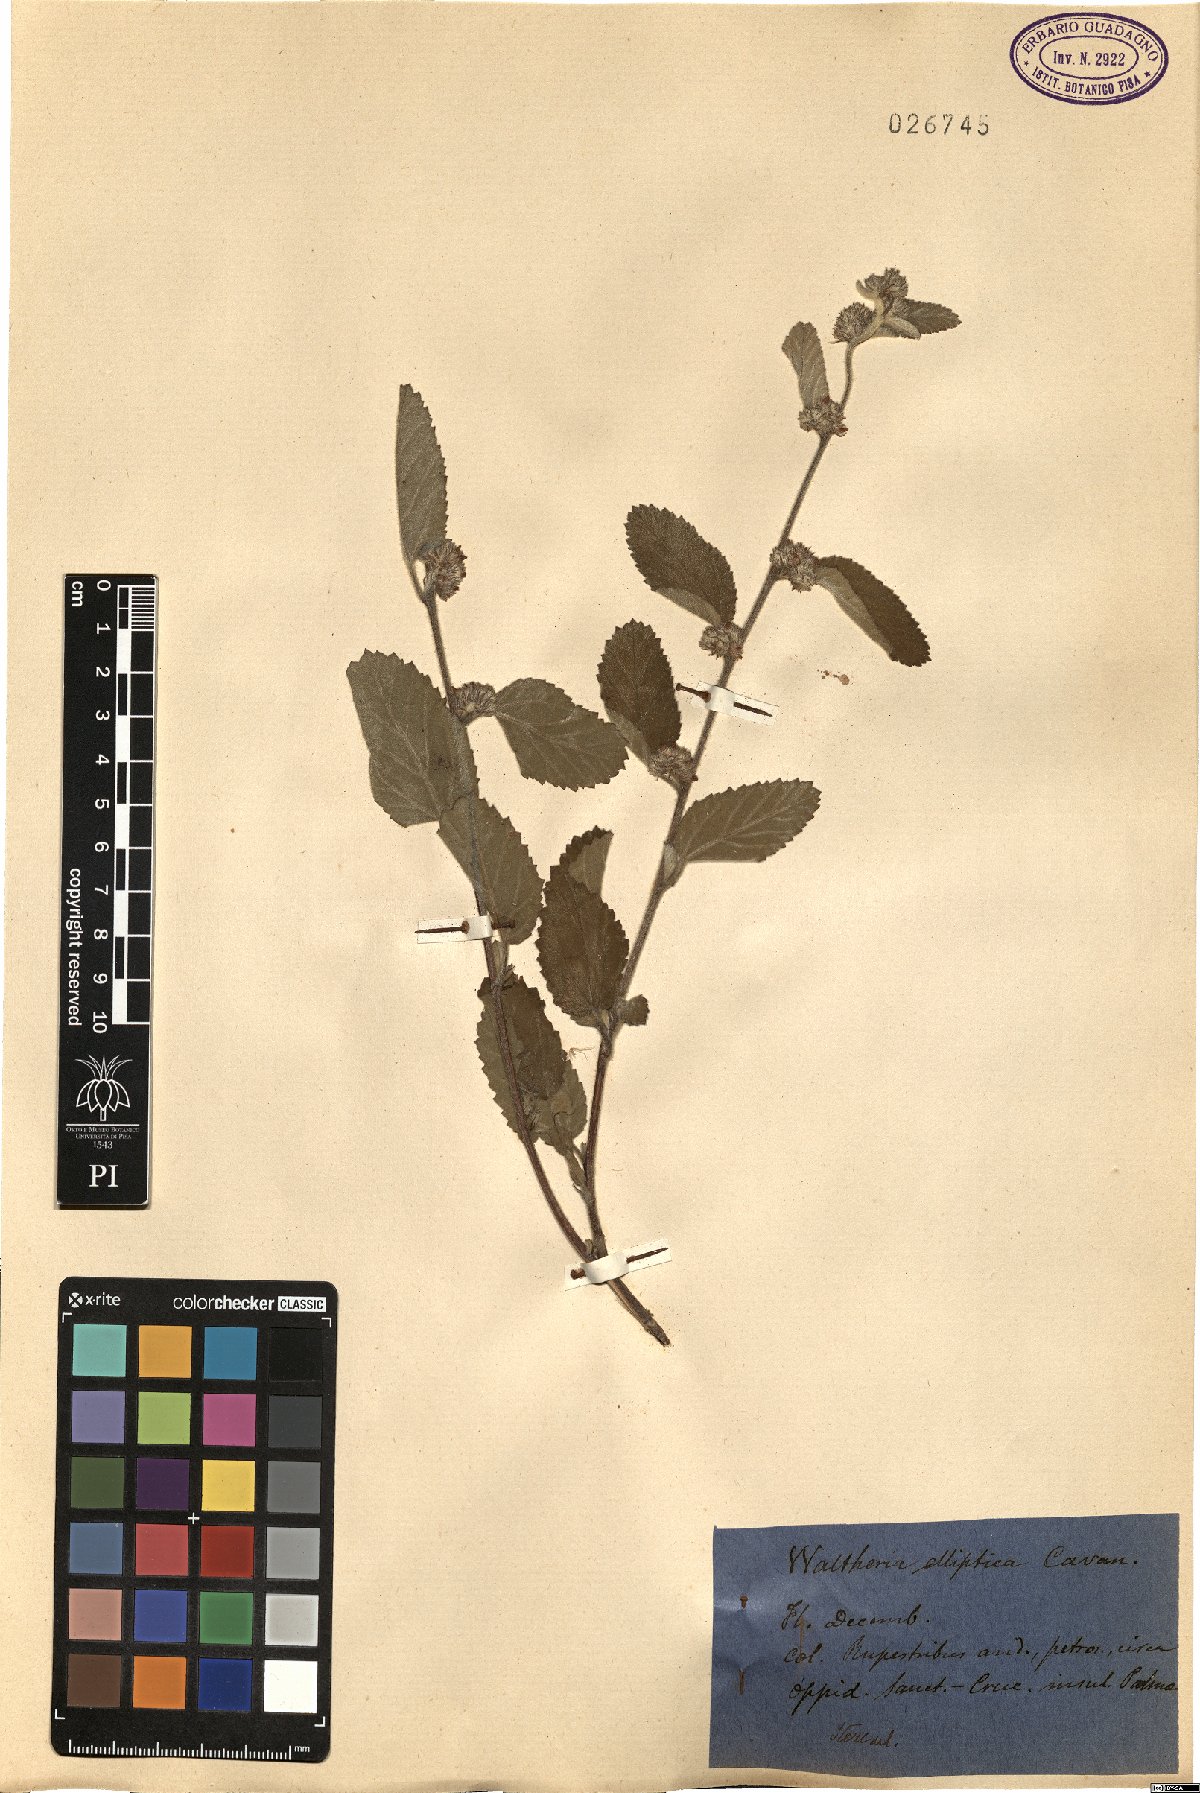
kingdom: Plantae
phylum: Tracheophyta
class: Magnoliopsida
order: Malvales
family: Malvaceae
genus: Waltheria
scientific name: Waltheria
